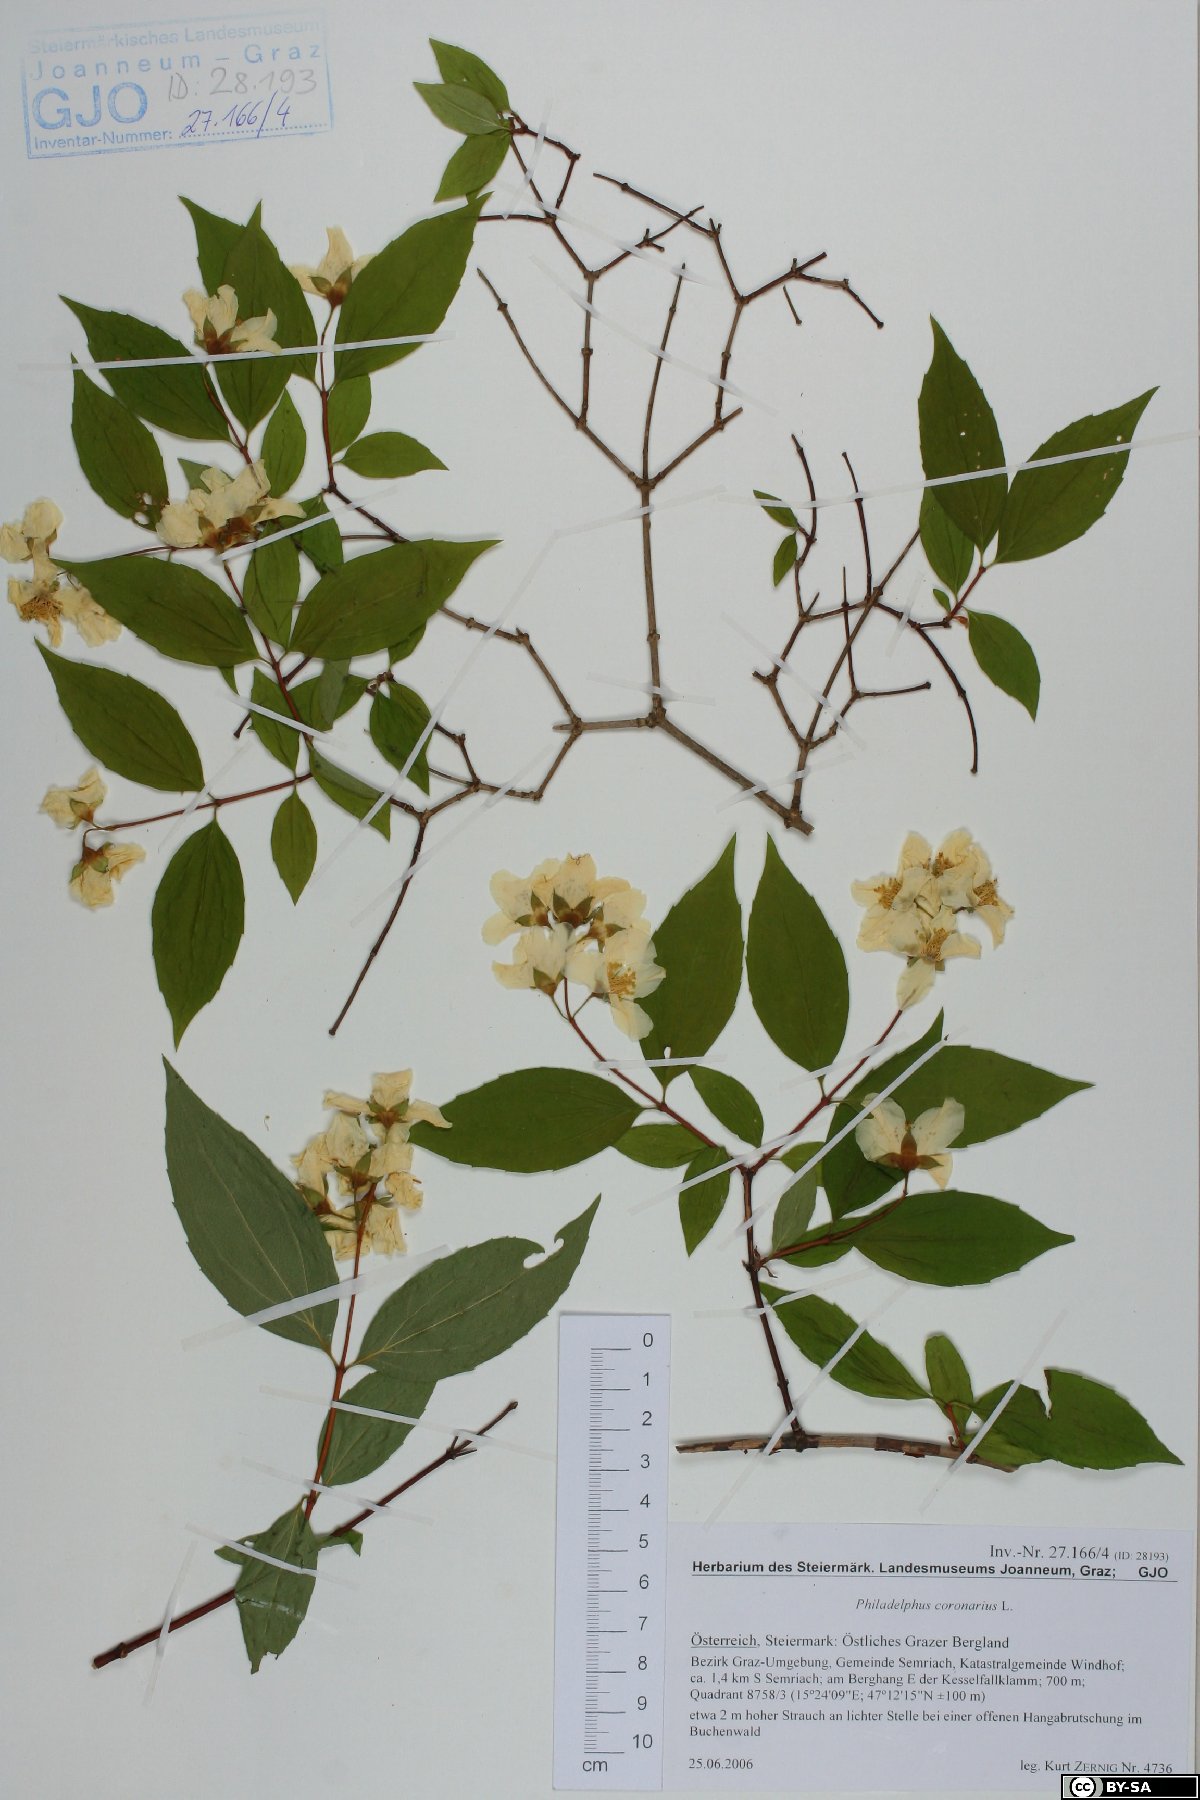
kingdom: Plantae
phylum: Tracheophyta
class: Magnoliopsida
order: Cornales
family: Hydrangeaceae
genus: Philadelphus
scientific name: Philadelphus coronarius
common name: Mock orange
